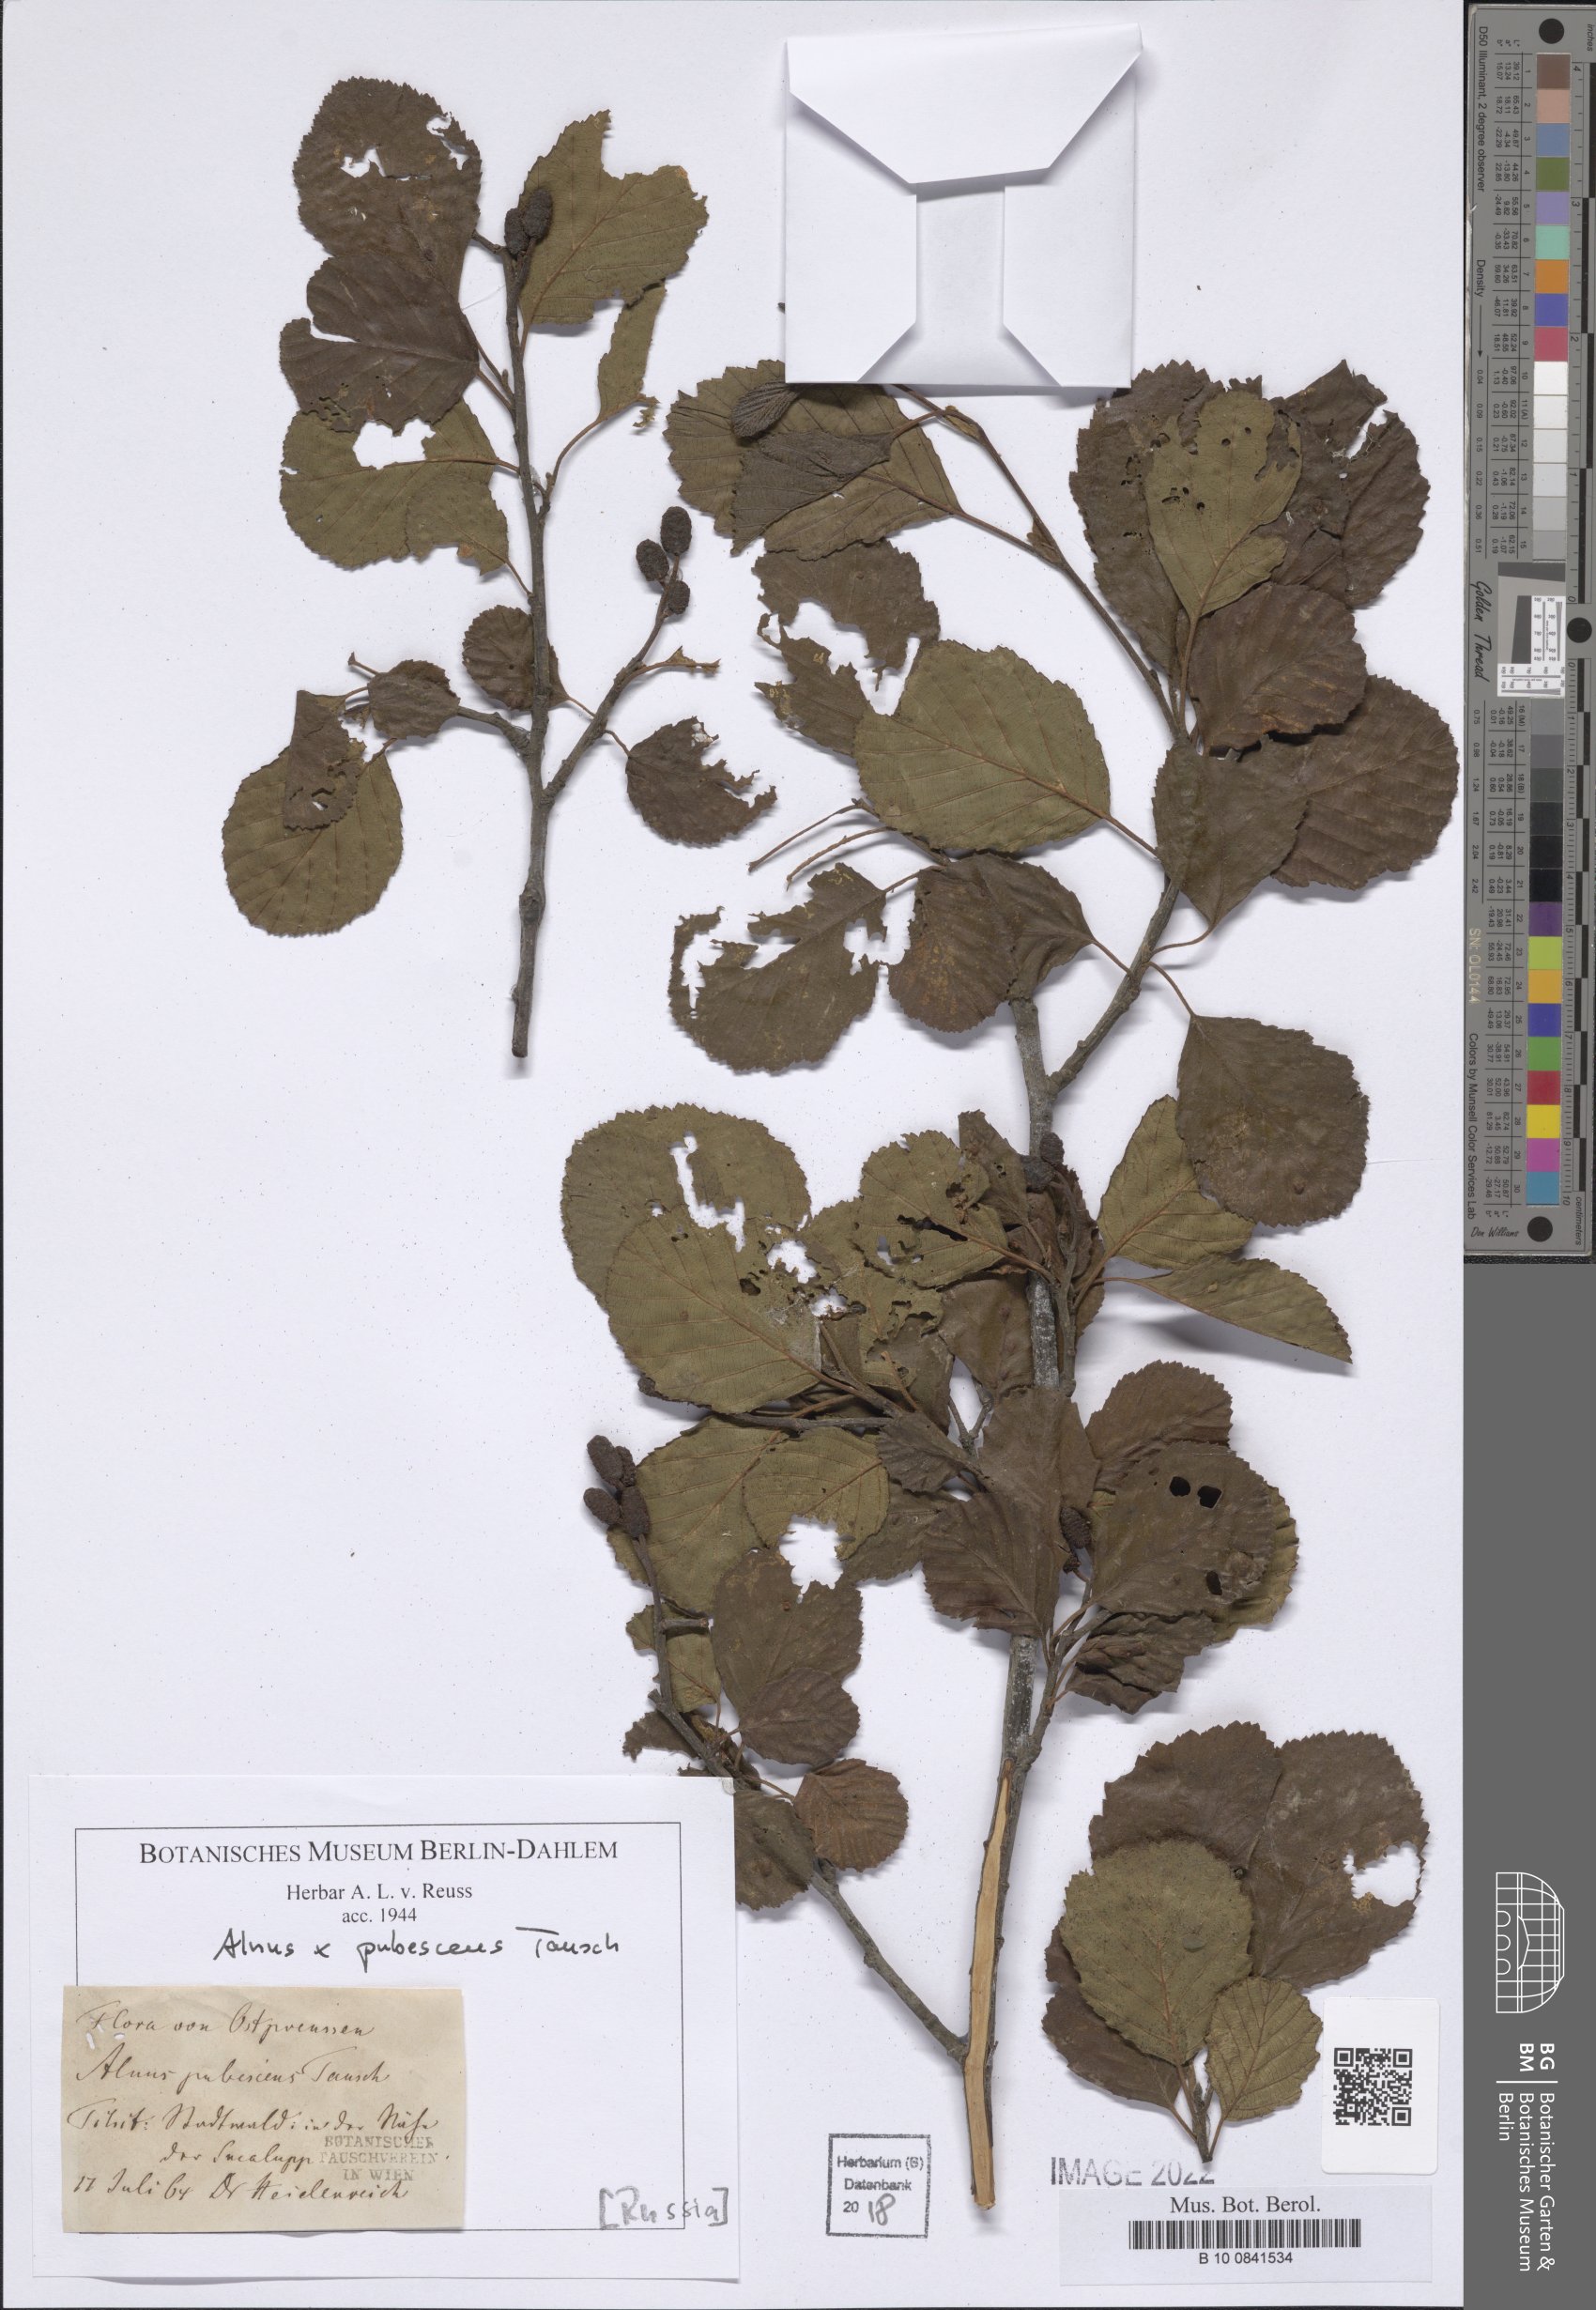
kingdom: Plantae
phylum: Tracheophyta
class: Magnoliopsida
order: Fagales
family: Betulaceae
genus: Alnus
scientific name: Alnus pubescens
